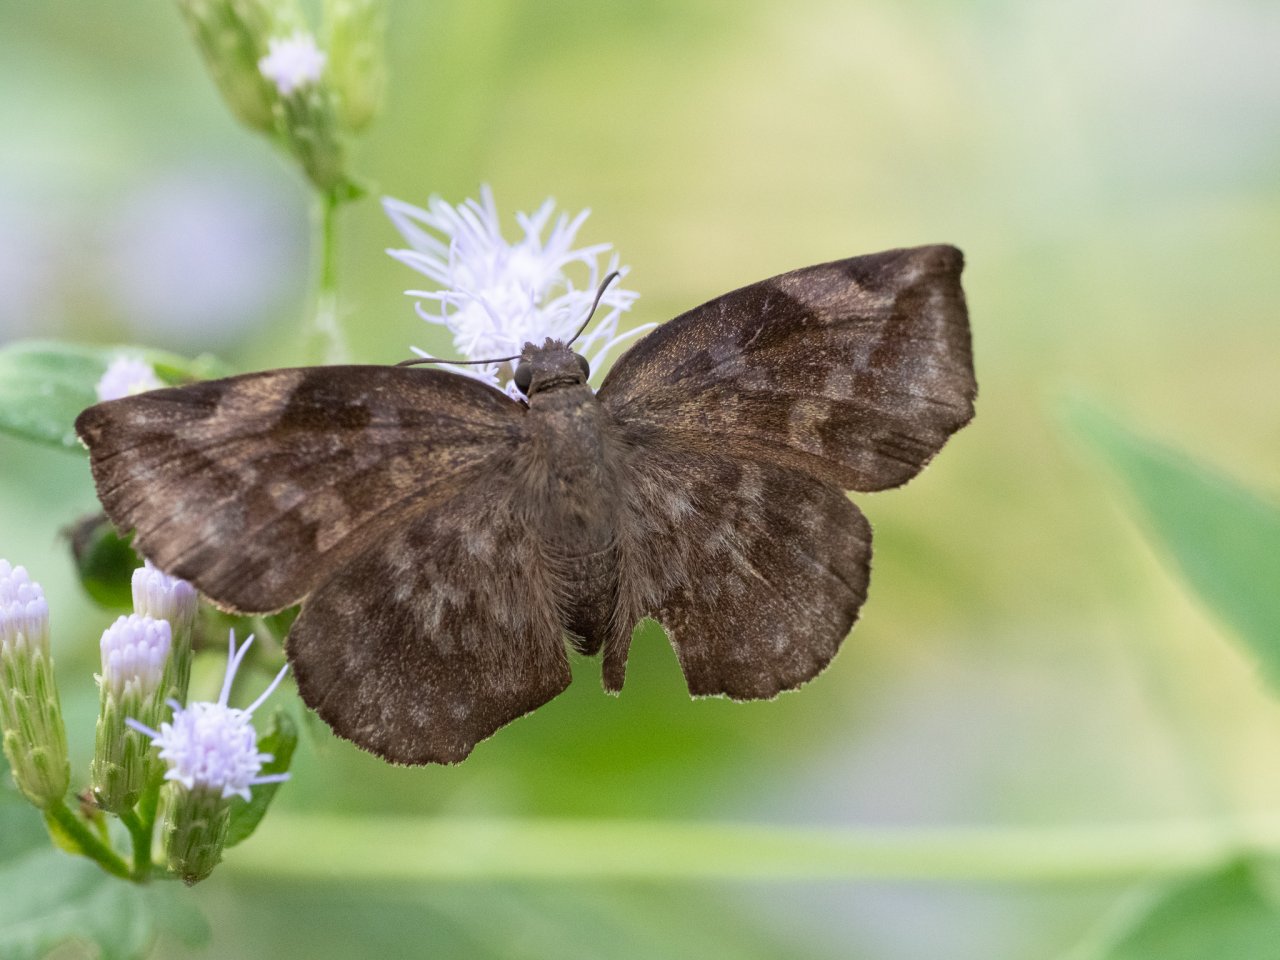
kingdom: Animalia
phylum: Arthropoda
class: Insecta
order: Lepidoptera
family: Hesperiidae
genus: Achlyodes
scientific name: Achlyodes thraso
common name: Sickle-winged Skipper
